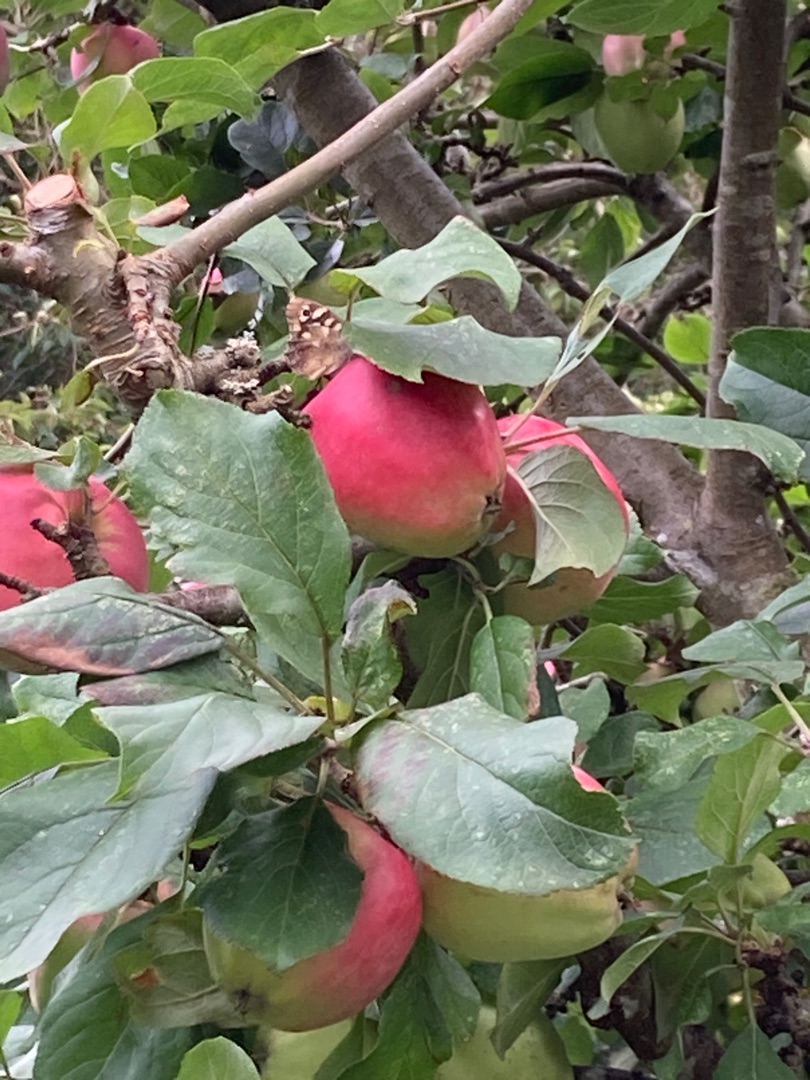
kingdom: Animalia
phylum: Arthropoda
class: Insecta
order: Lepidoptera
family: Nymphalidae
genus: Pararge
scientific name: Pararge aegeria
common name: Skovrandøje
